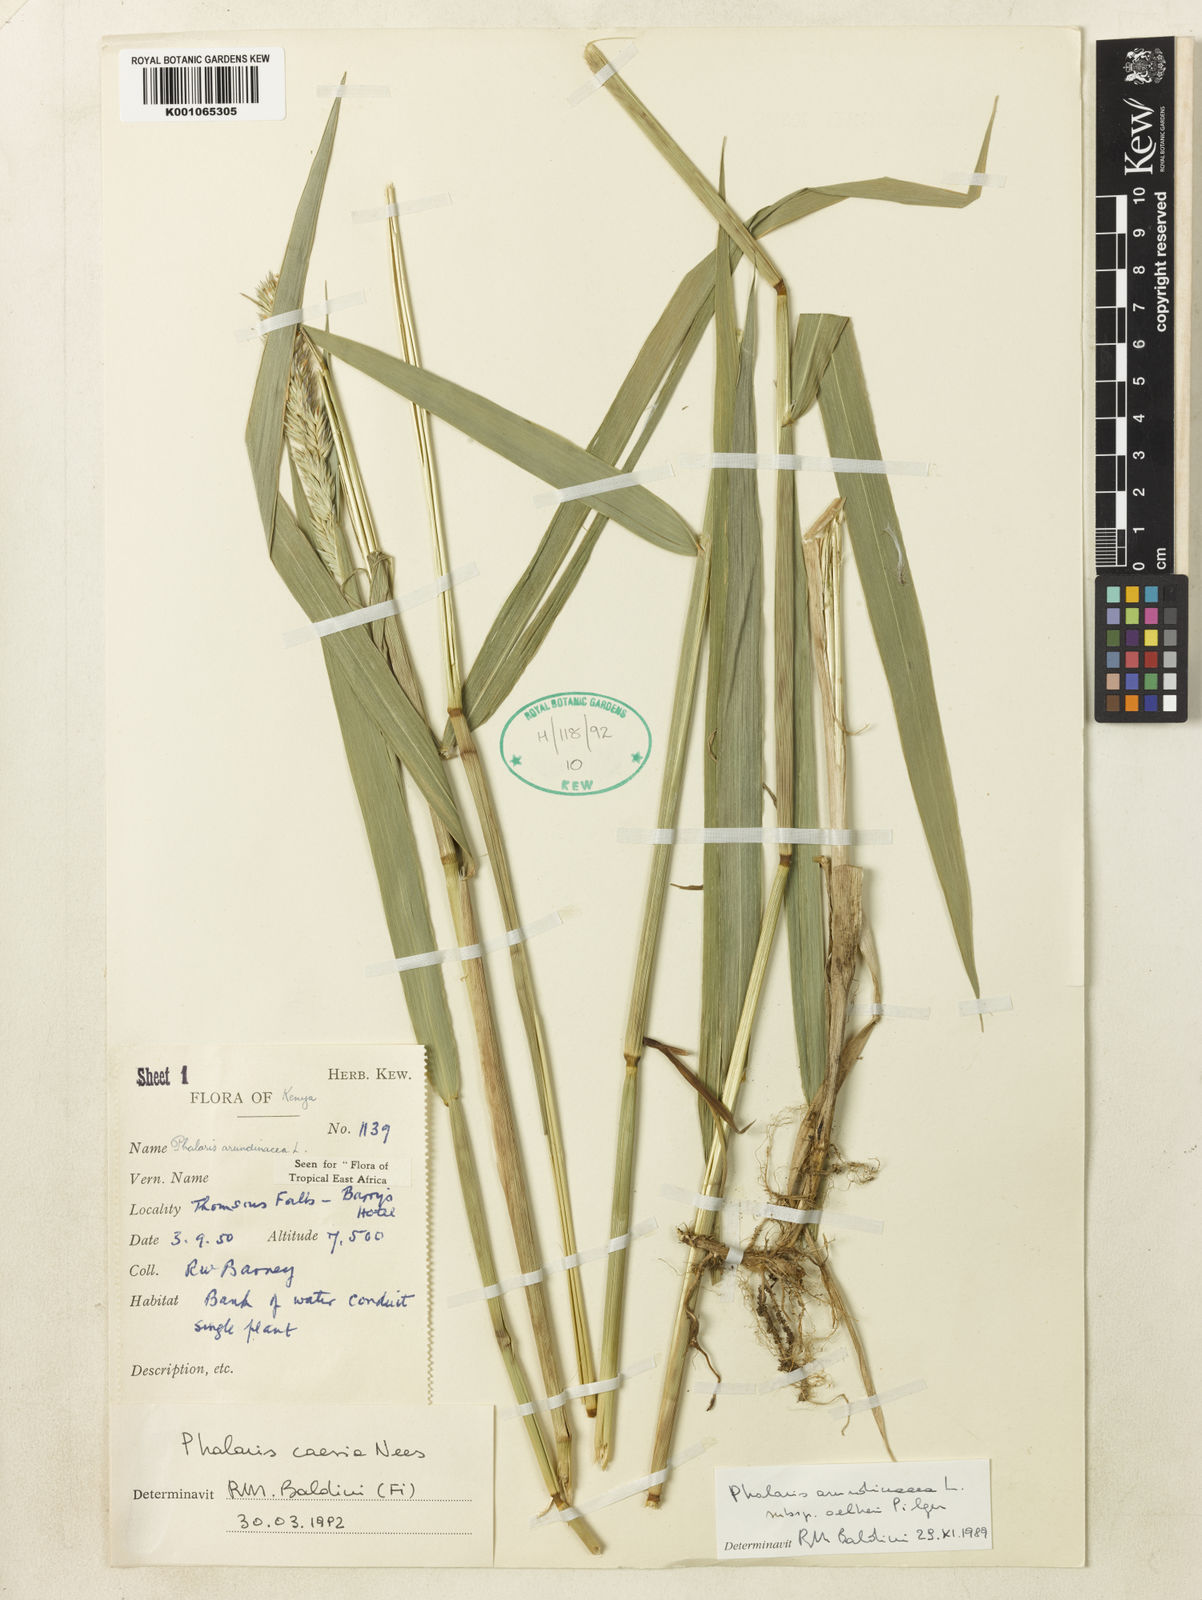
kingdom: Plantae
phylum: Tracheophyta
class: Liliopsida
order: Poales
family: Poaceae
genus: Phalaris
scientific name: Phalaris arundinacea
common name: Reed canary-grass
